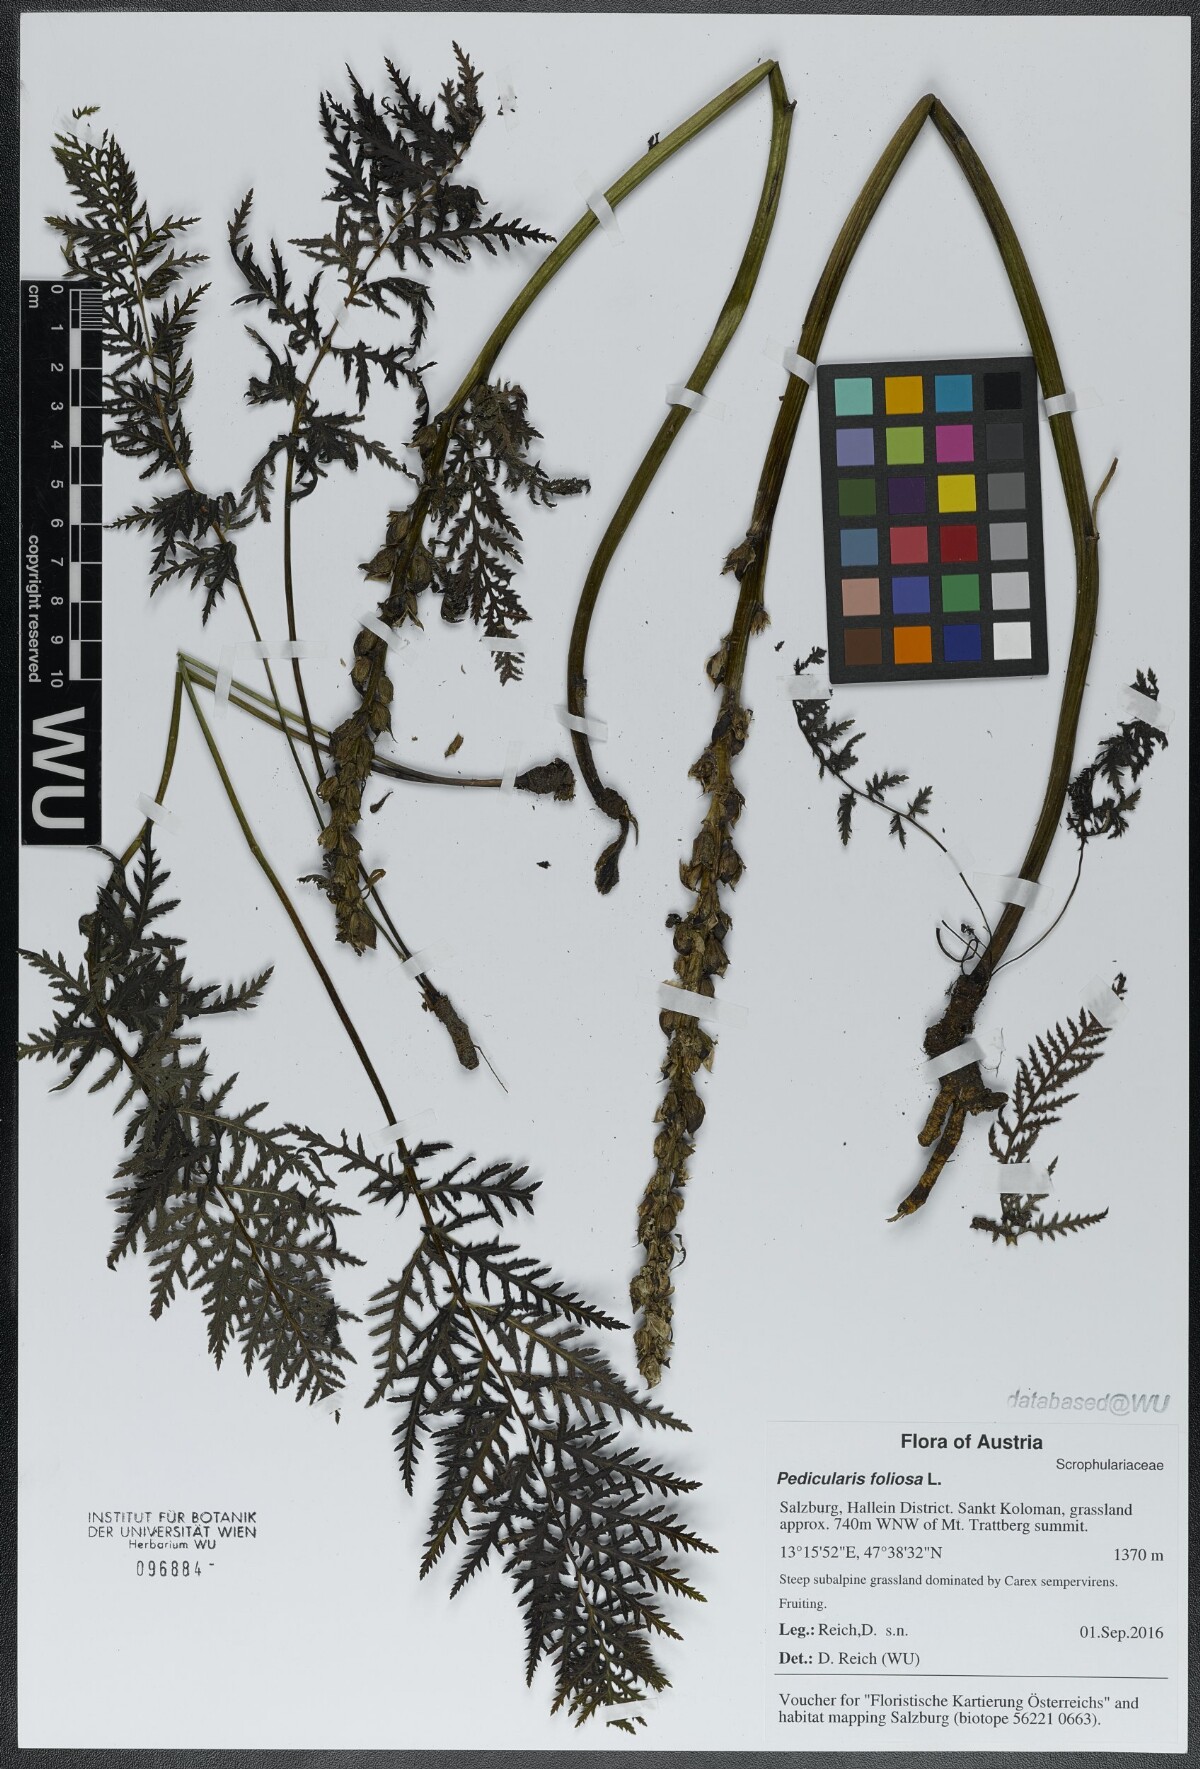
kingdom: Plantae
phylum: Tracheophyta
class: Magnoliopsida
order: Lamiales
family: Orobanchaceae
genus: Pedicularis
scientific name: Pedicularis foliosa
